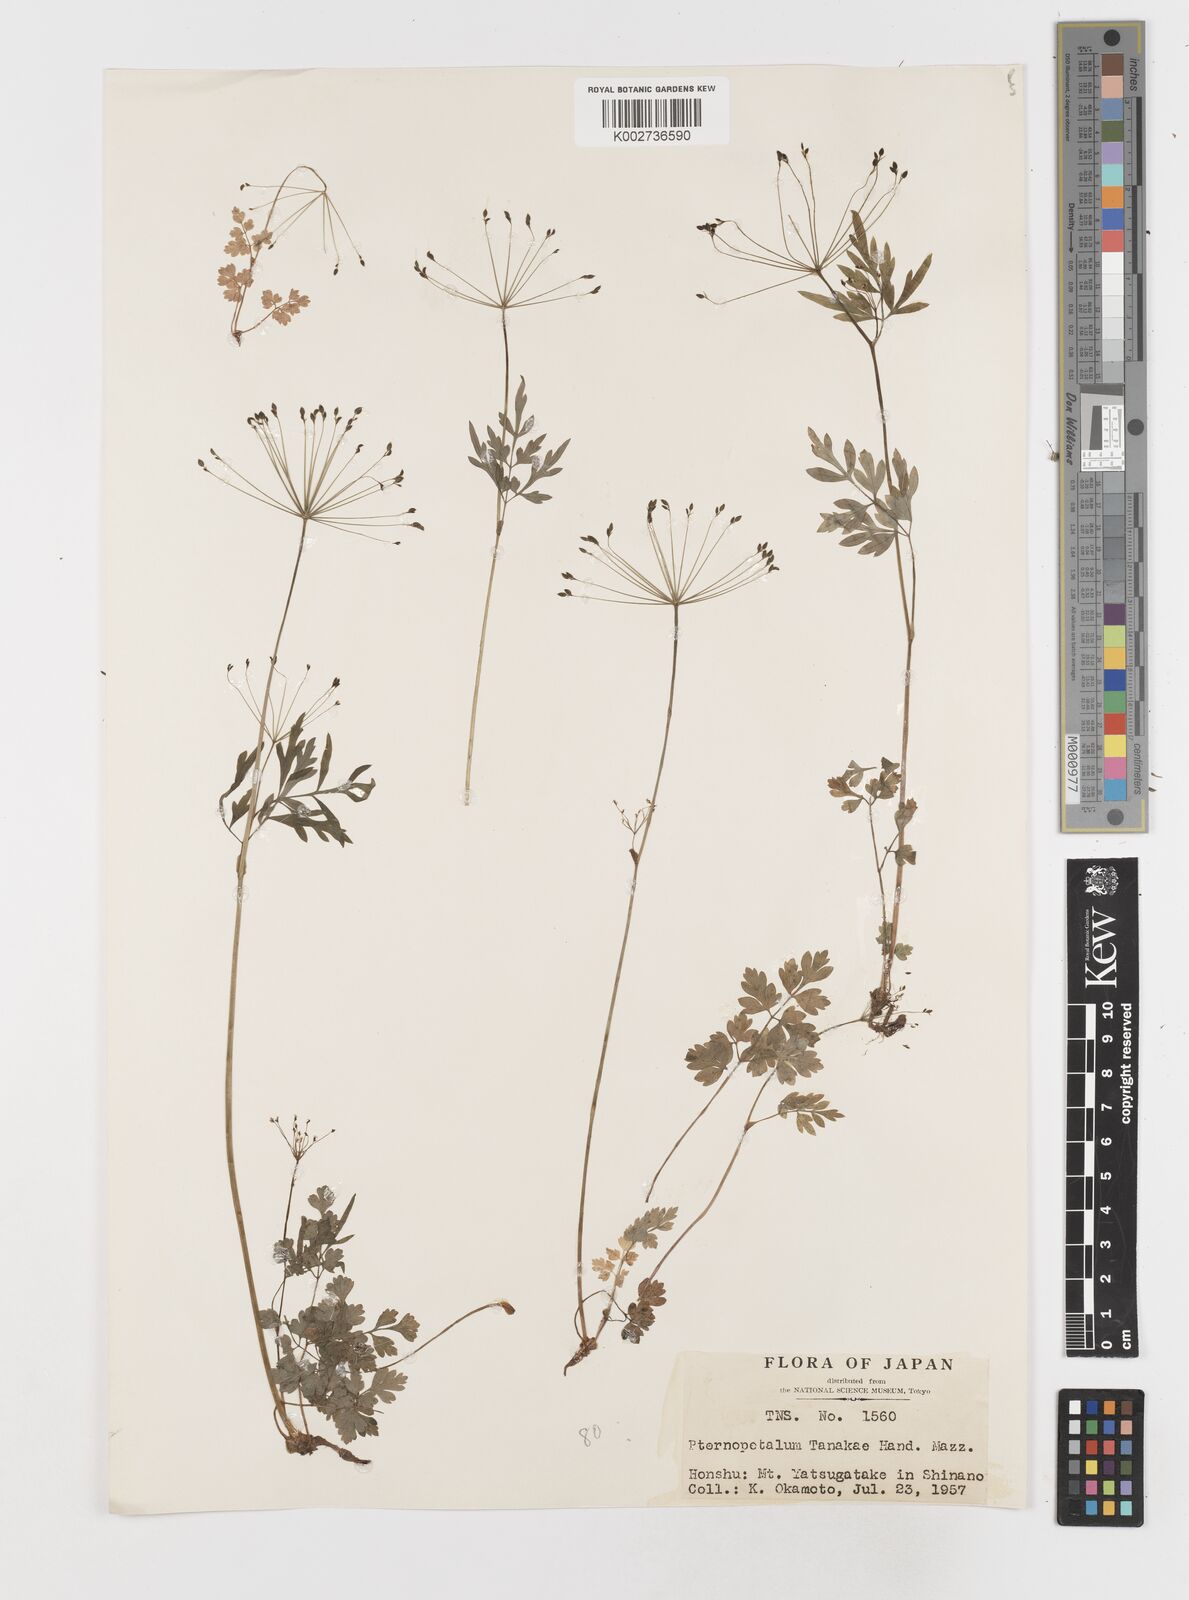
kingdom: Plantae
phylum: Tracheophyta
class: Magnoliopsida
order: Apiales
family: Apiaceae
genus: Pternopetalum
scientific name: Pternopetalum tanakae
